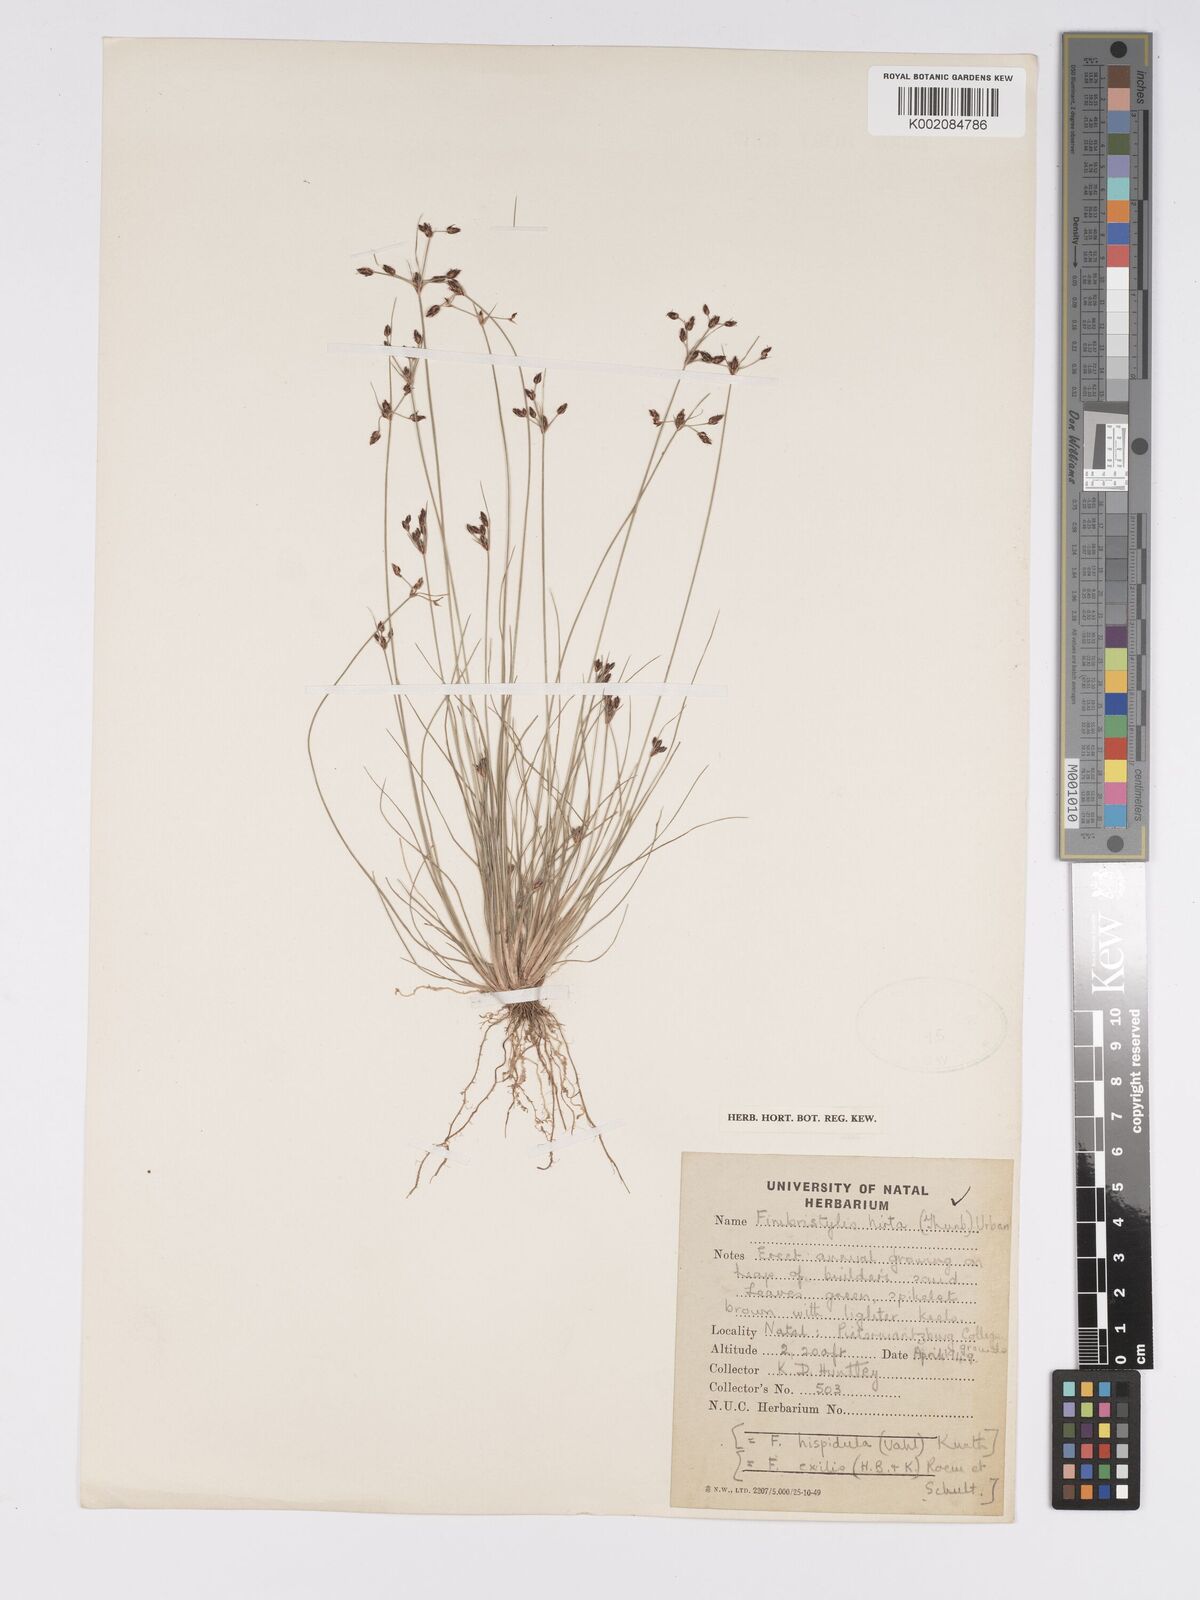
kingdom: Plantae
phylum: Tracheophyta
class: Liliopsida
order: Poales
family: Cyperaceae
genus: Bulbostylis
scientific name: Bulbostylis
